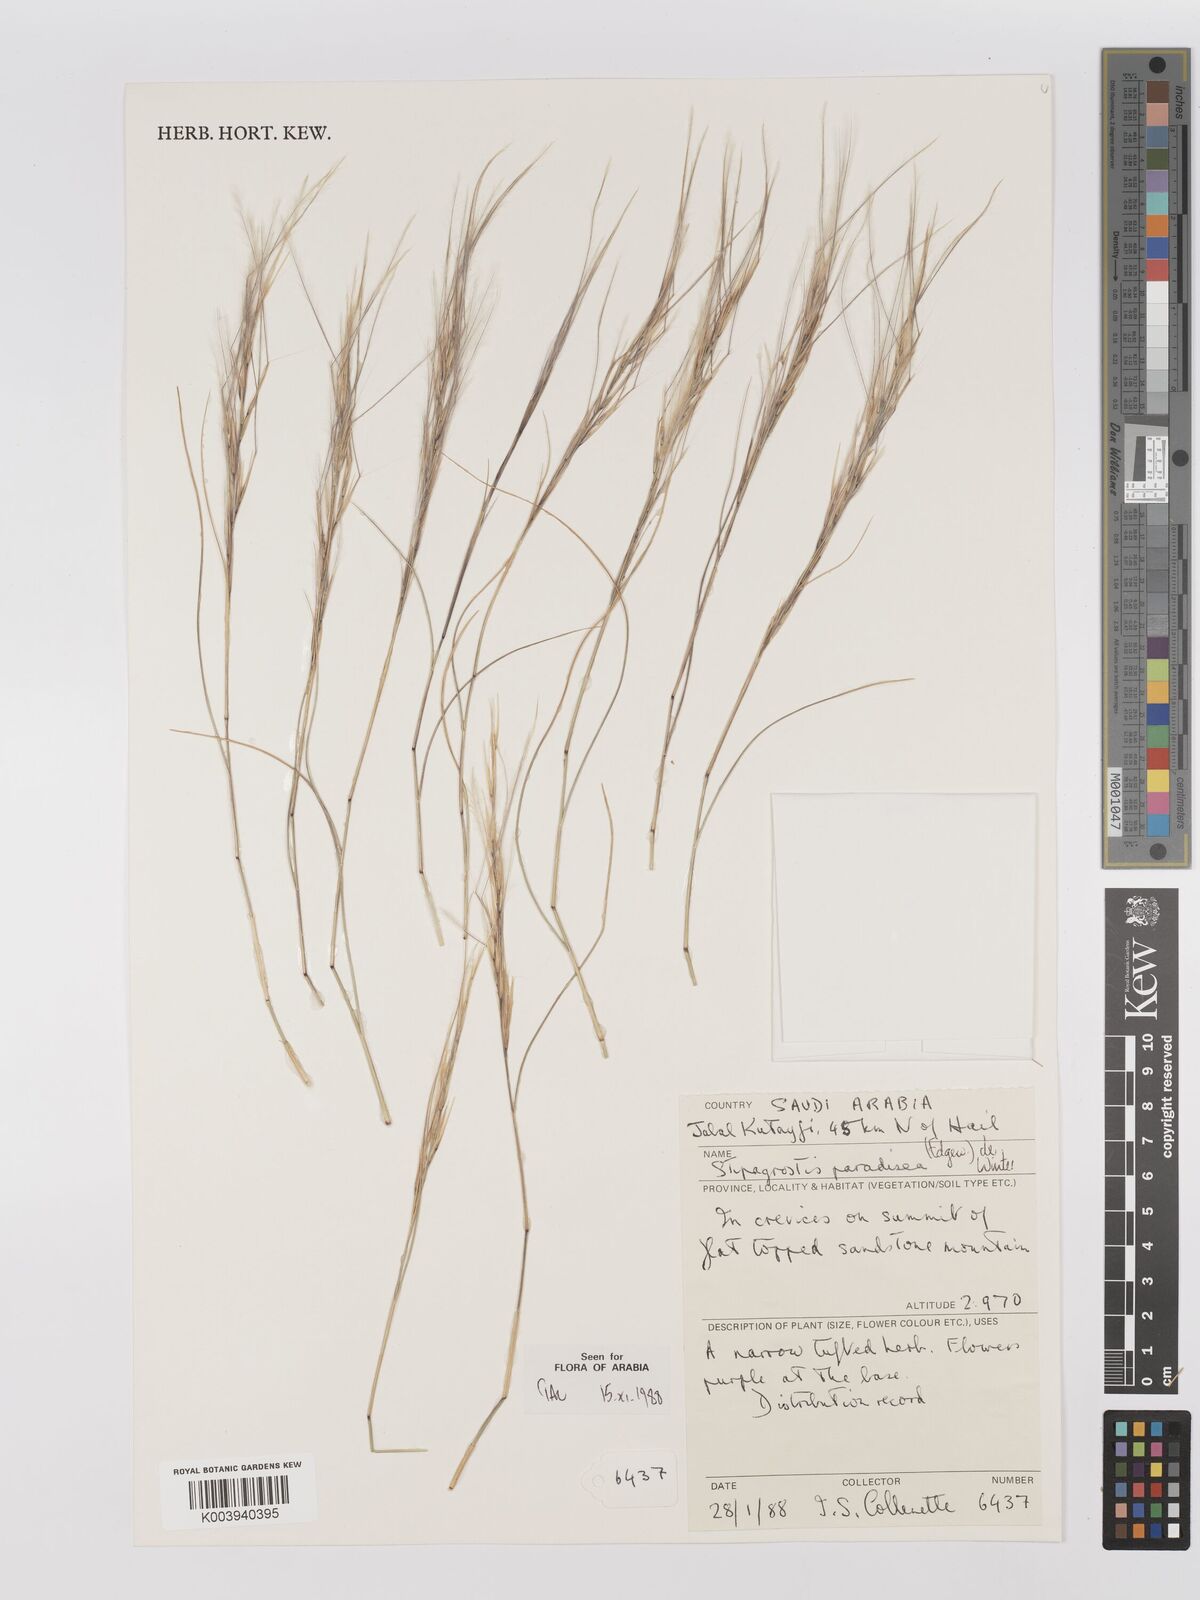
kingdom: Plantae
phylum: Tracheophyta
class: Liliopsida
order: Poales
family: Poaceae
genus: Stipagrostis
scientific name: Stipagrostis paradisea
